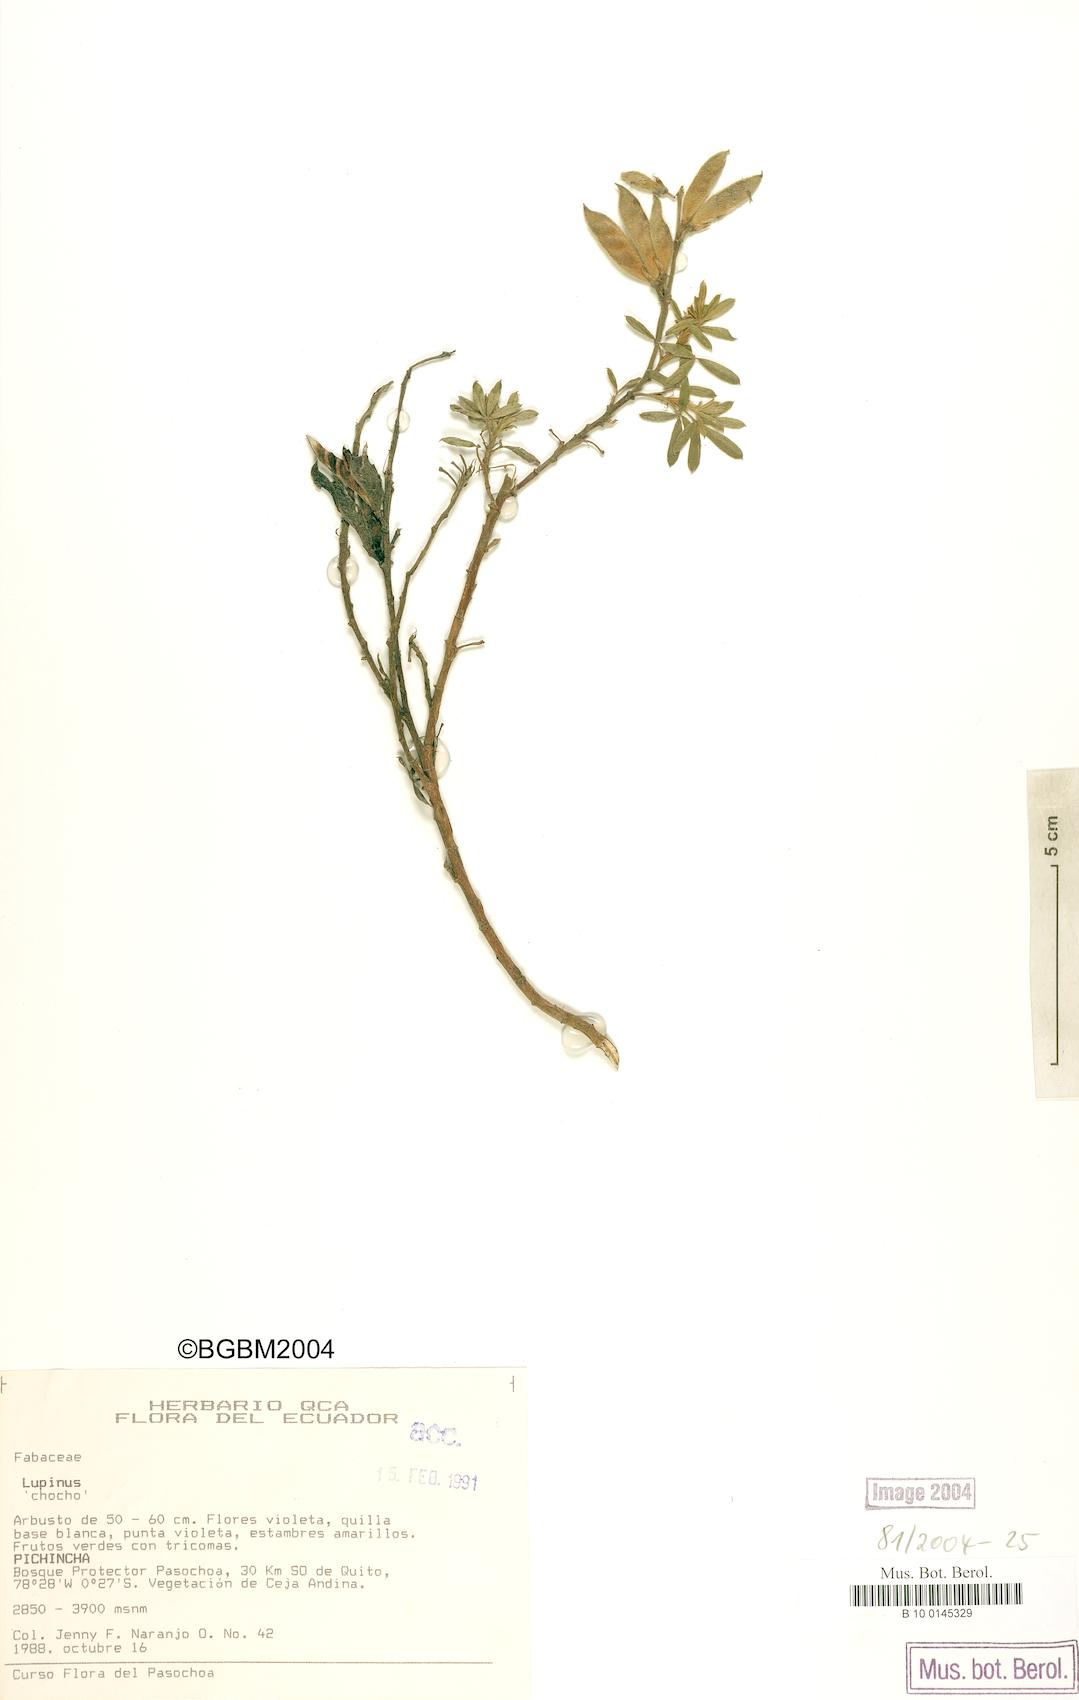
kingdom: Plantae
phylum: Tracheophyta
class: Magnoliopsida
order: Fabales
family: Fabaceae
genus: Lupinus
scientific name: Lupinus
